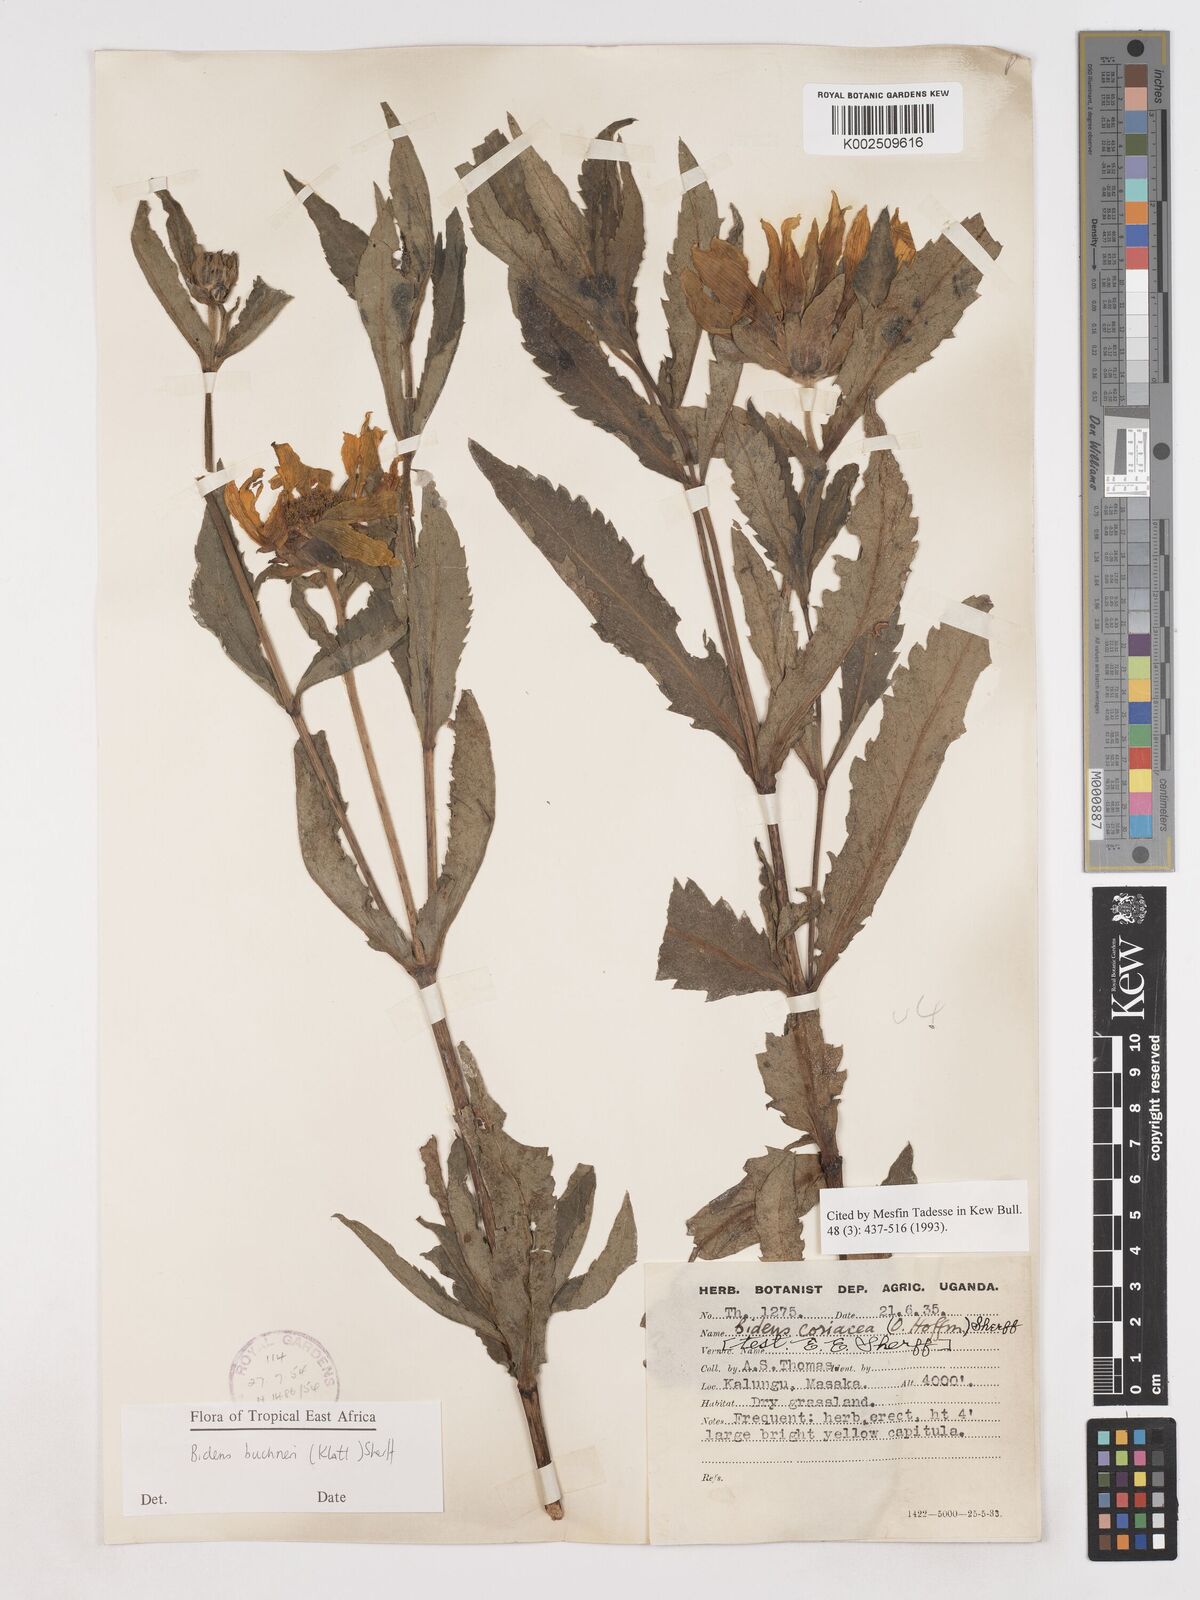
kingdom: Plantae
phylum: Tracheophyta
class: Magnoliopsida
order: Asterales
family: Asteraceae
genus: Bidens
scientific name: Bidens buchneri
